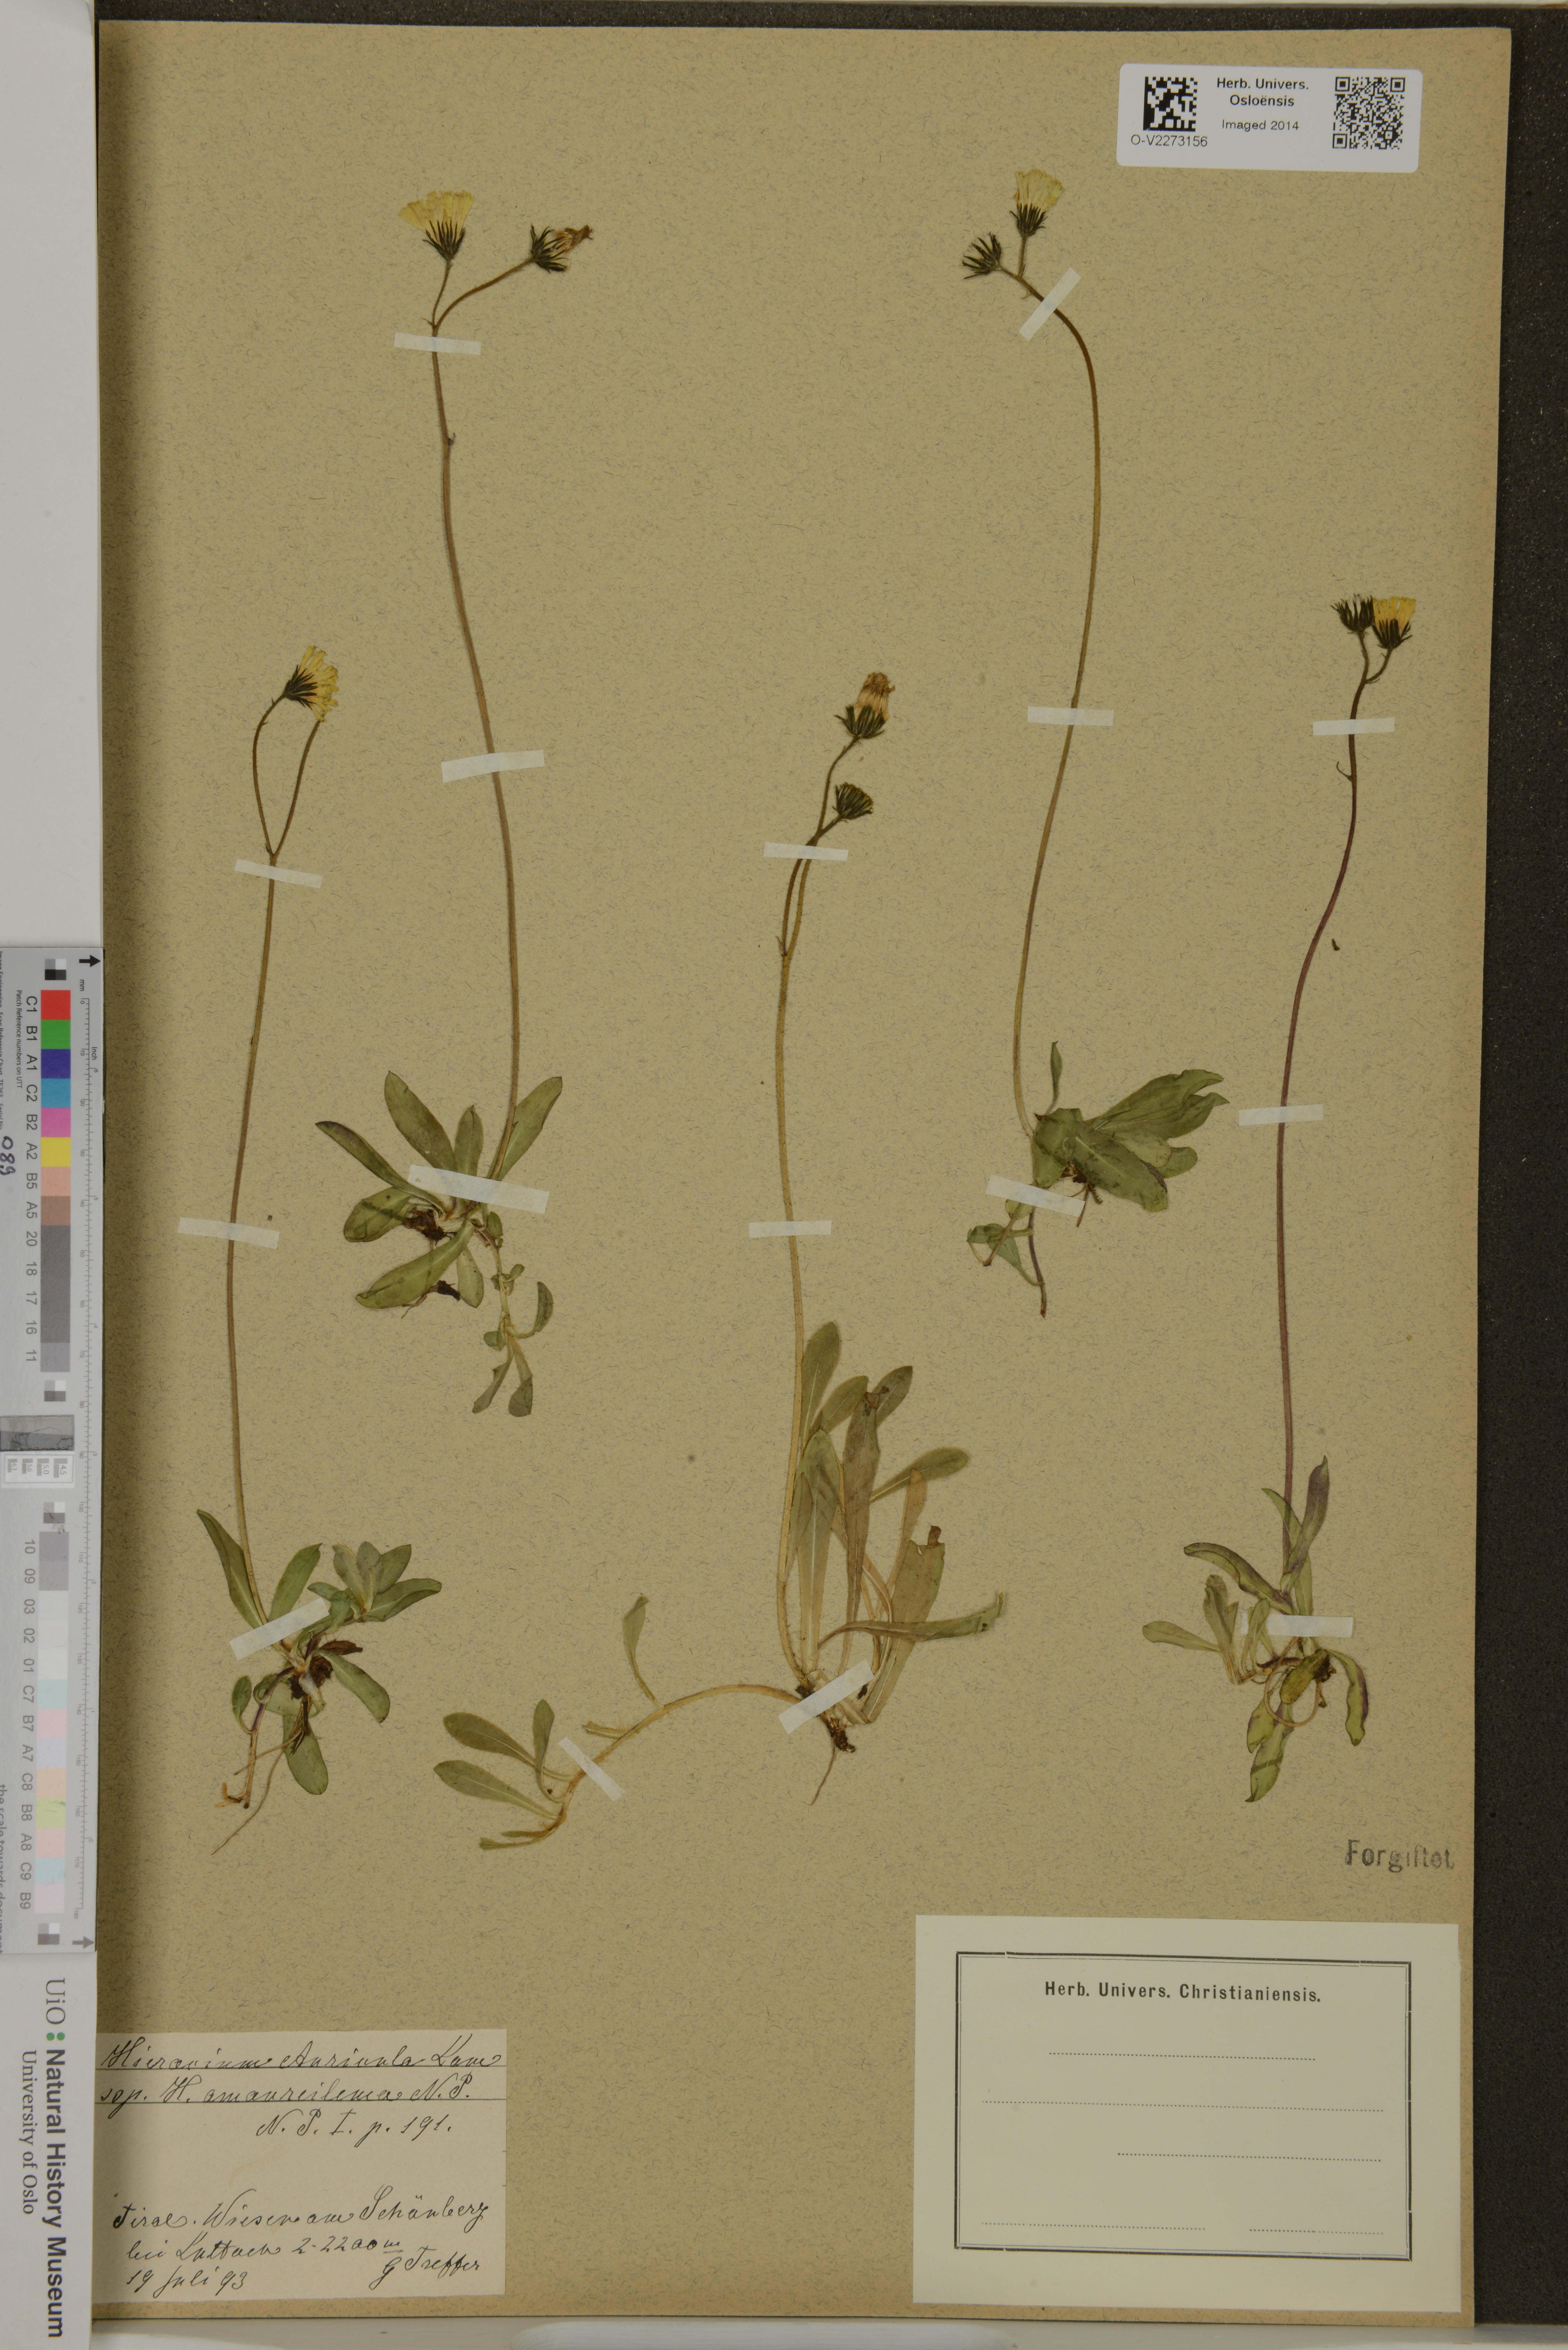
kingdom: Plantae
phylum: Tracheophyta
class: Magnoliopsida
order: Asterales
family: Asteraceae
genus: Pilosella
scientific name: Pilosella lactucella
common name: Glaucous fox-and-cubs
